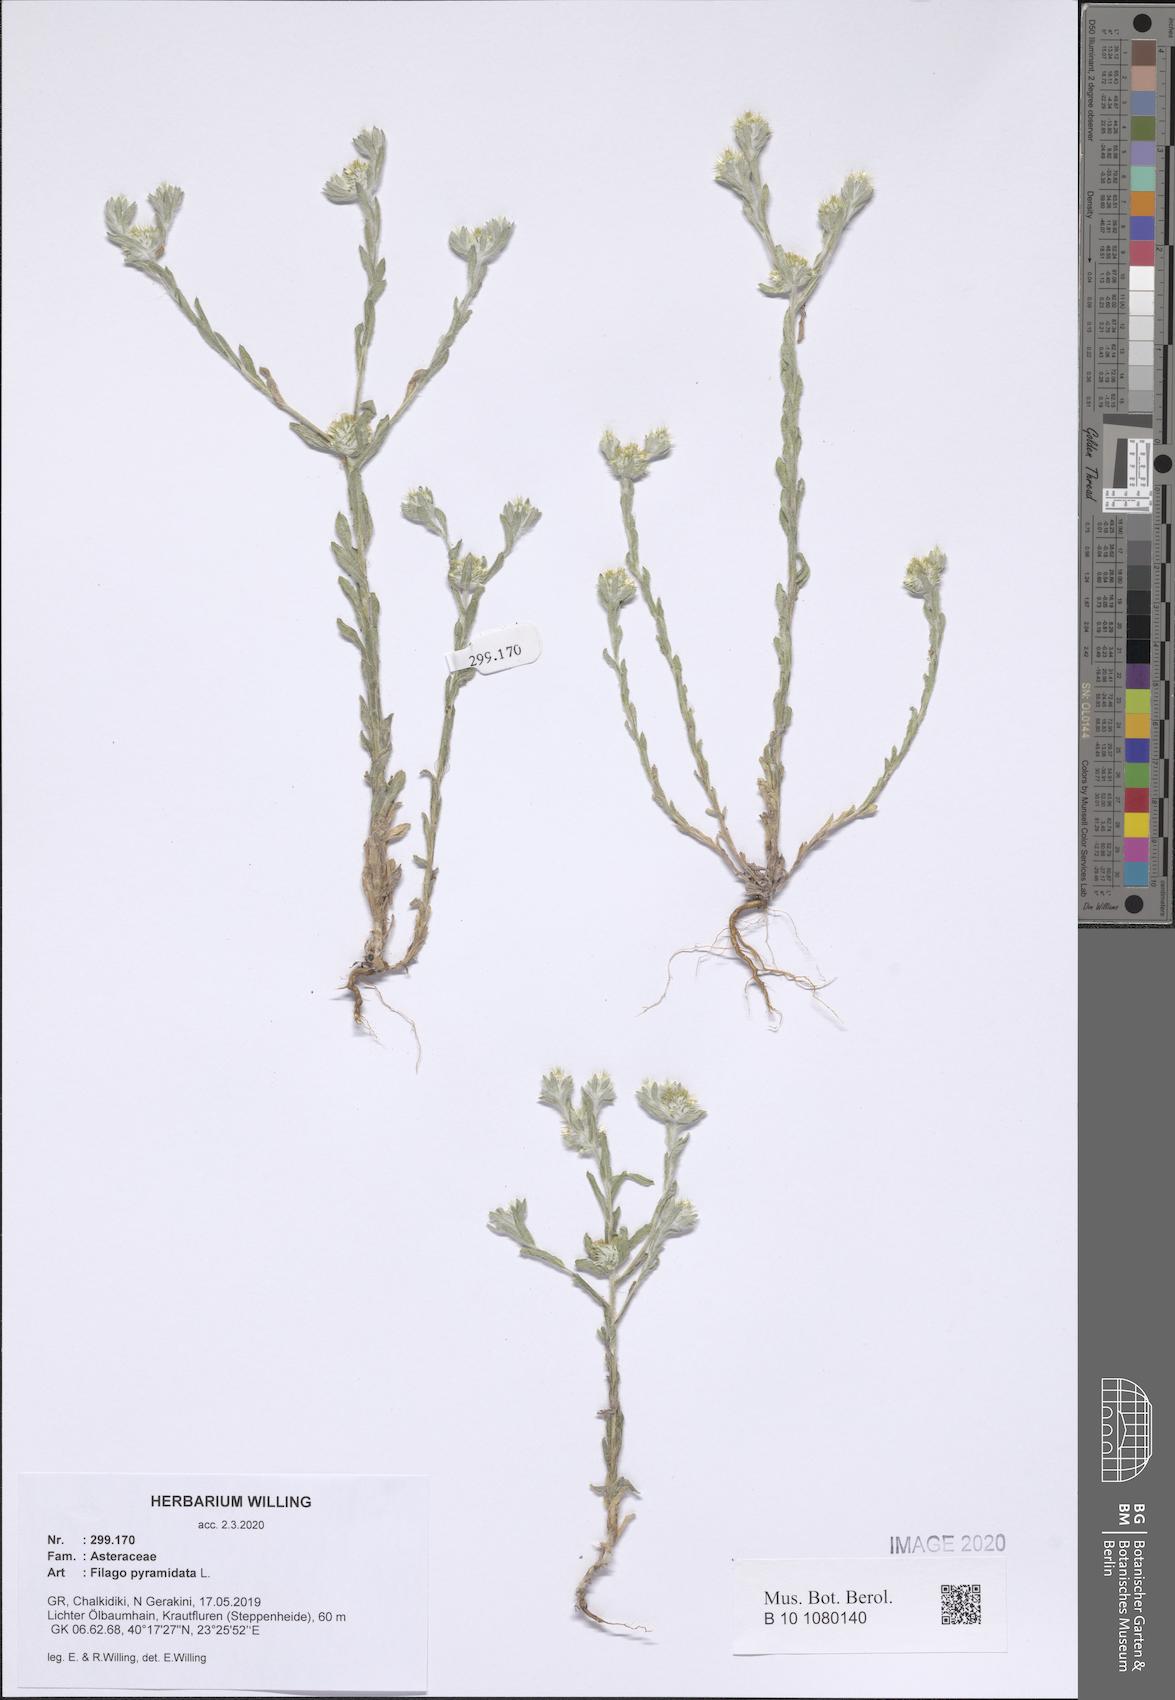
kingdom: Plantae
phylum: Tracheophyta
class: Magnoliopsida
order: Asterales
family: Asteraceae
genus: Filago
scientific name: Filago pyramidata
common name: Broad-leaved cudweed
